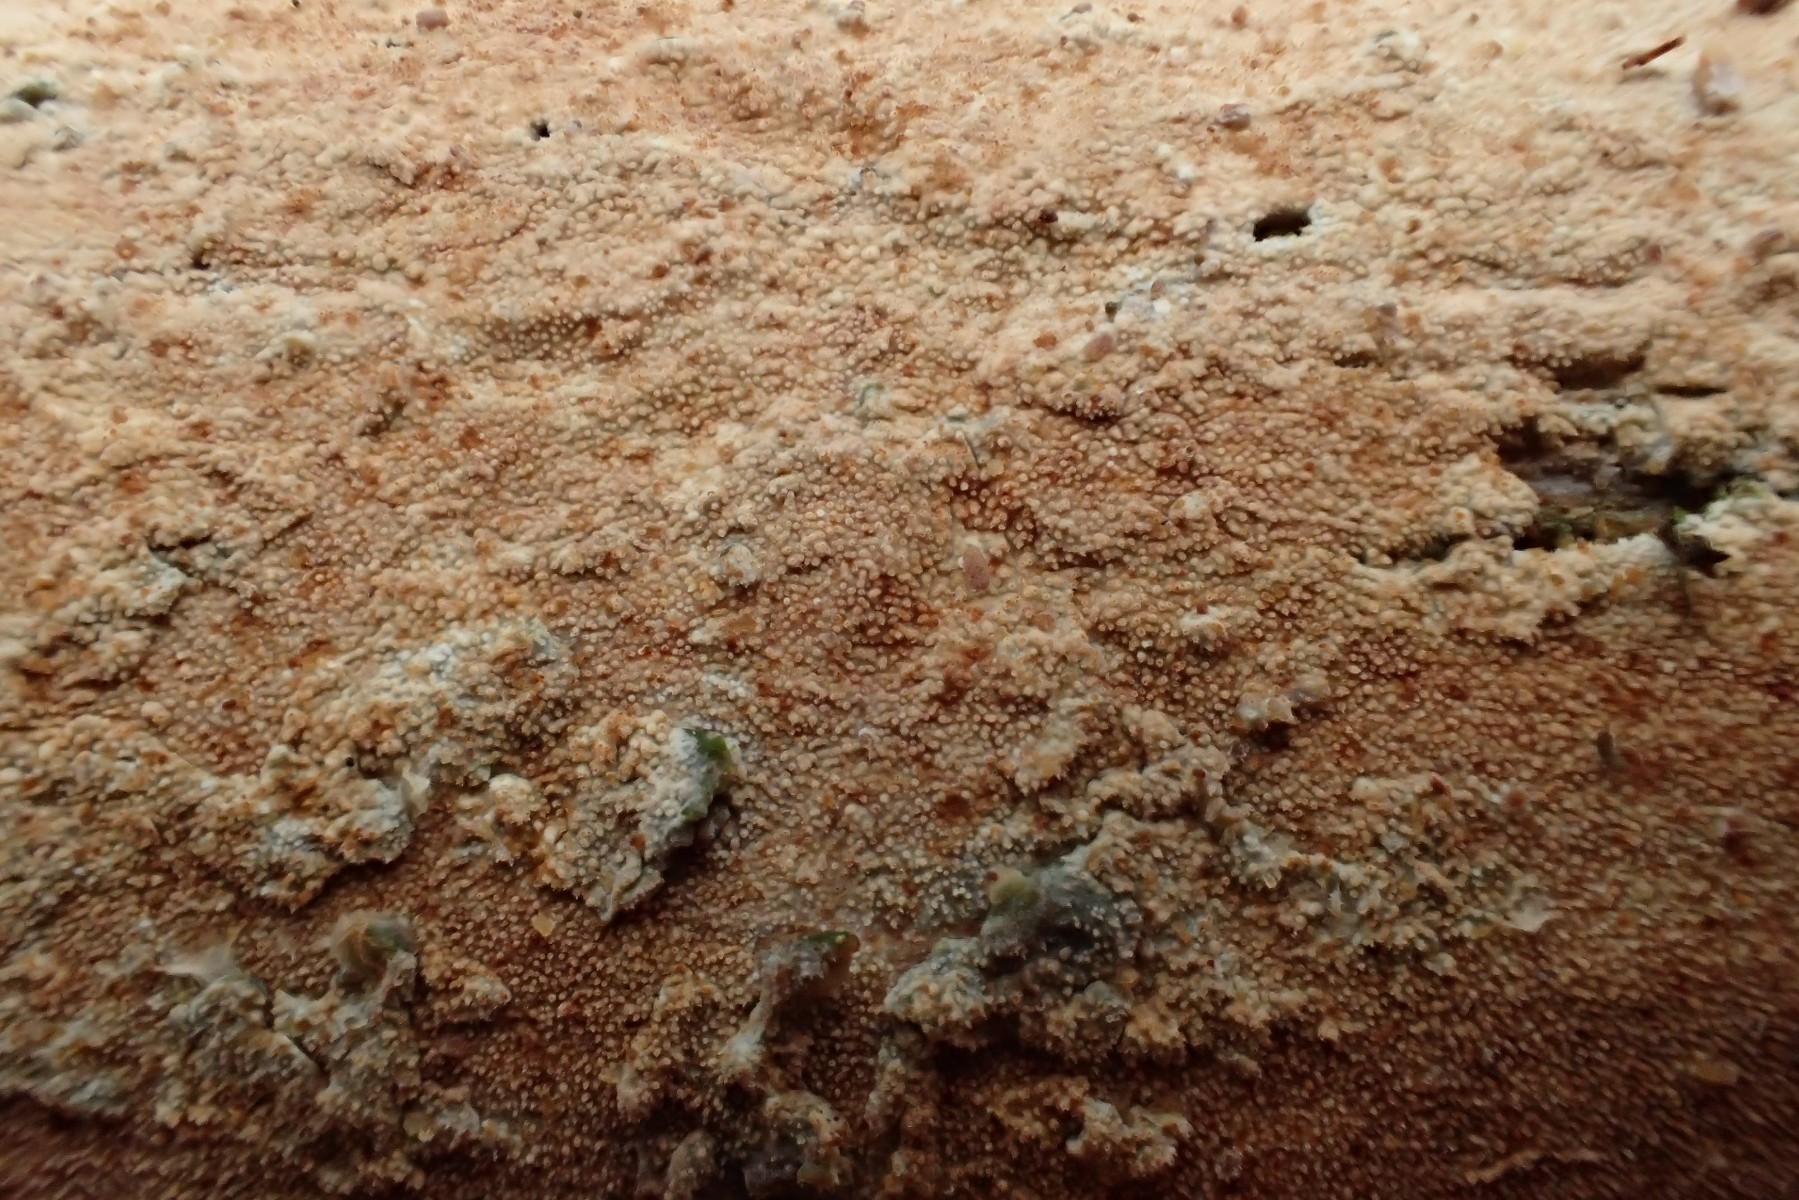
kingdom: Fungi
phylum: Basidiomycota
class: Agaricomycetes
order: Hymenochaetales
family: Rickenellaceae
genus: Resinicium
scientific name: Resinicium bicolor
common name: almindelig vokstand
